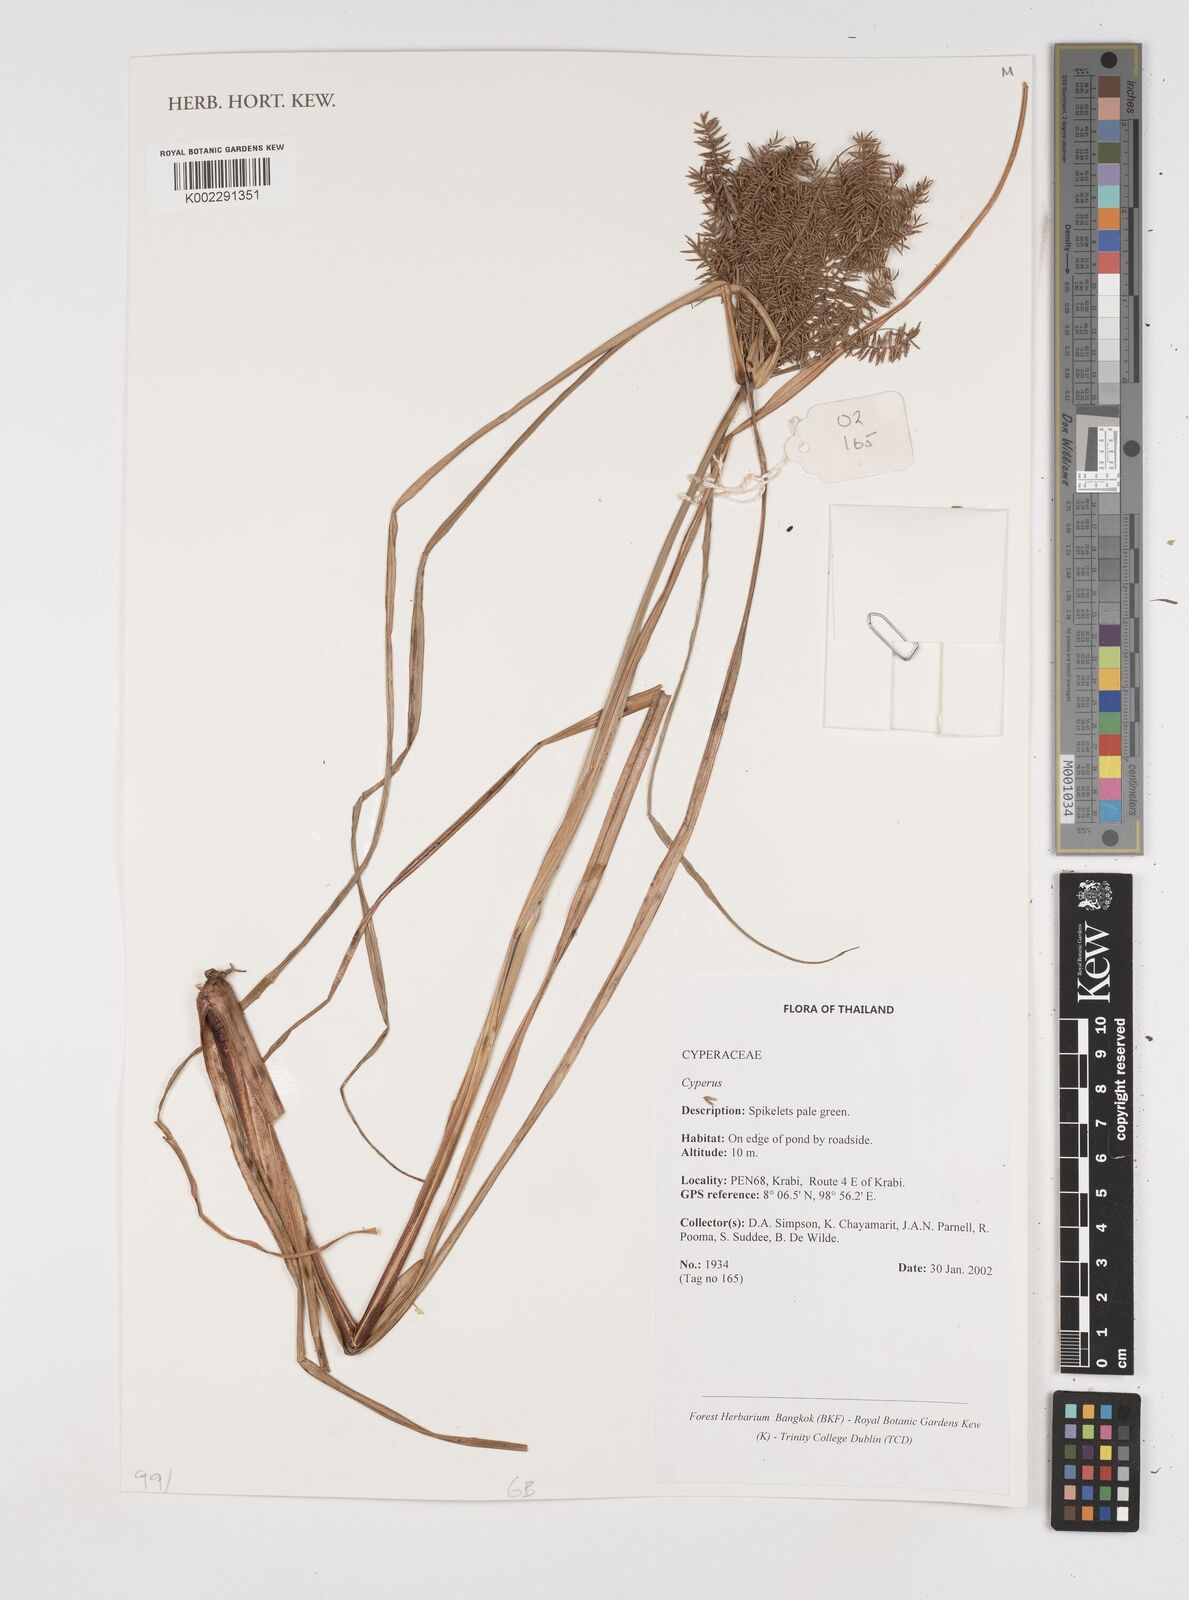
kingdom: Plantae
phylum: Tracheophyta
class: Liliopsida
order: Poales
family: Cyperaceae
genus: Cyperus
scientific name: Cyperus
